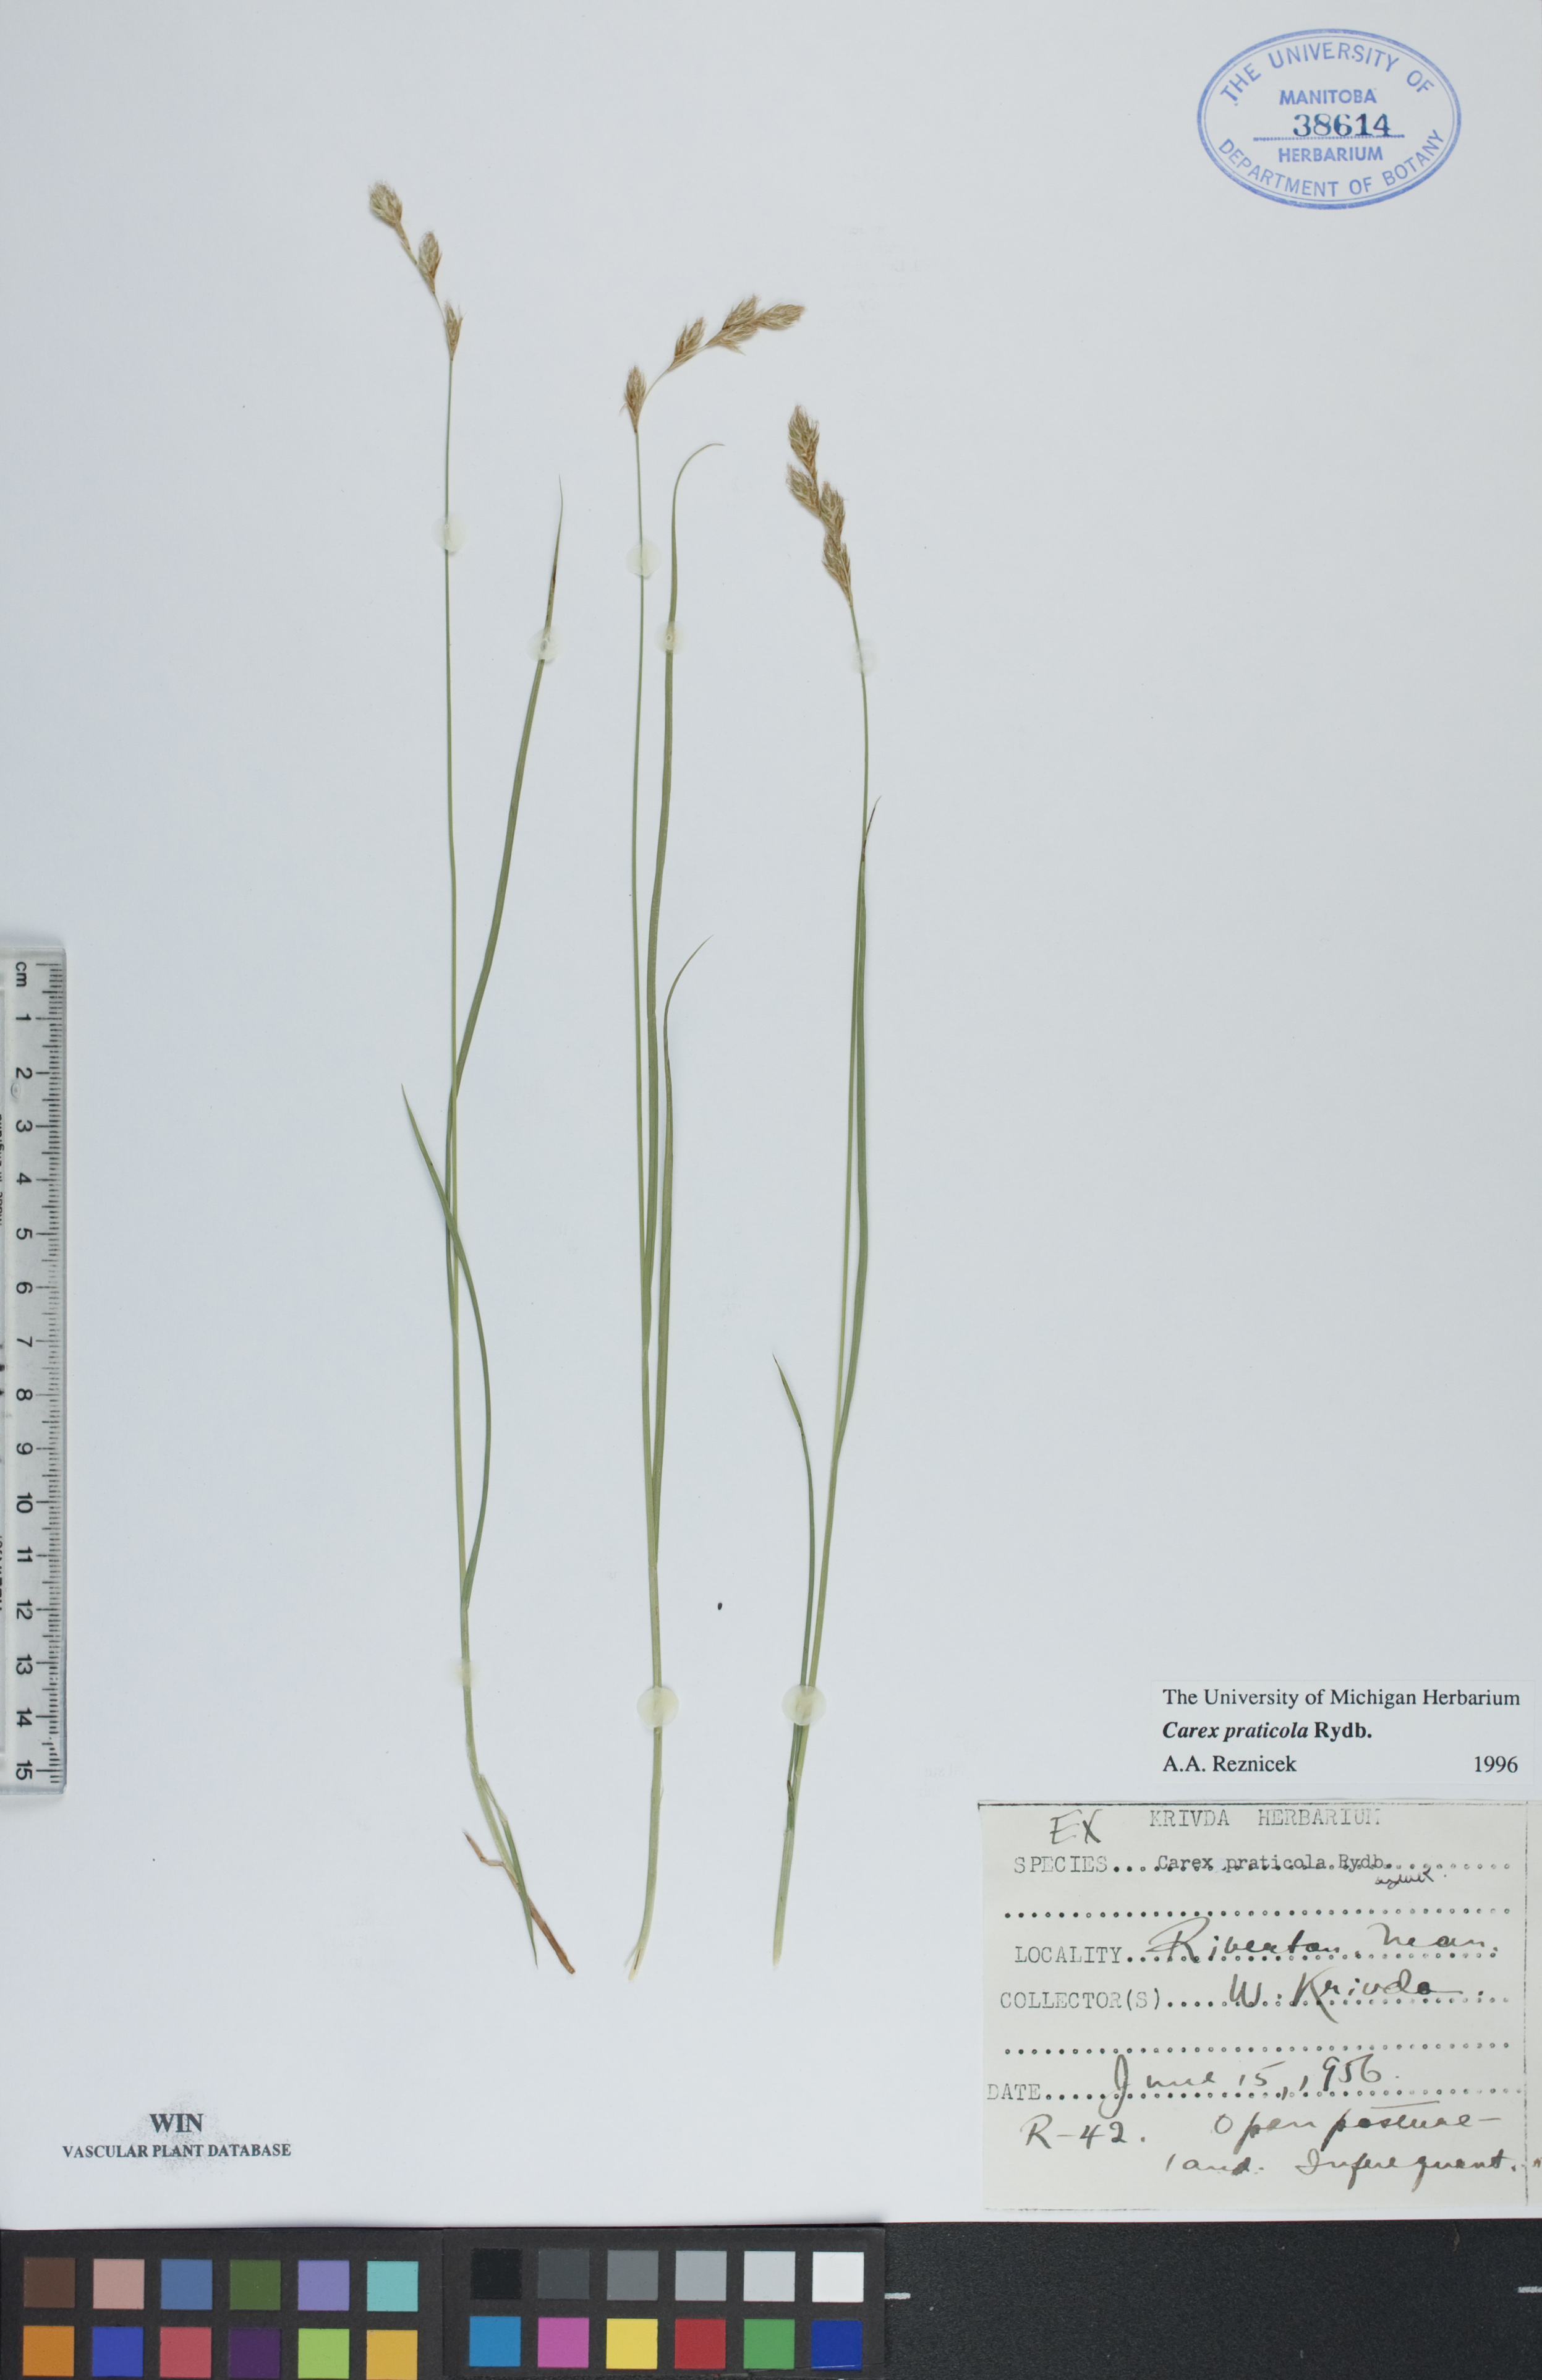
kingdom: Plantae
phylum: Tracheophyta
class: Liliopsida
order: Poales
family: Cyperaceae
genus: Carex
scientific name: Carex praticola
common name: Large-fruited oval sedge
